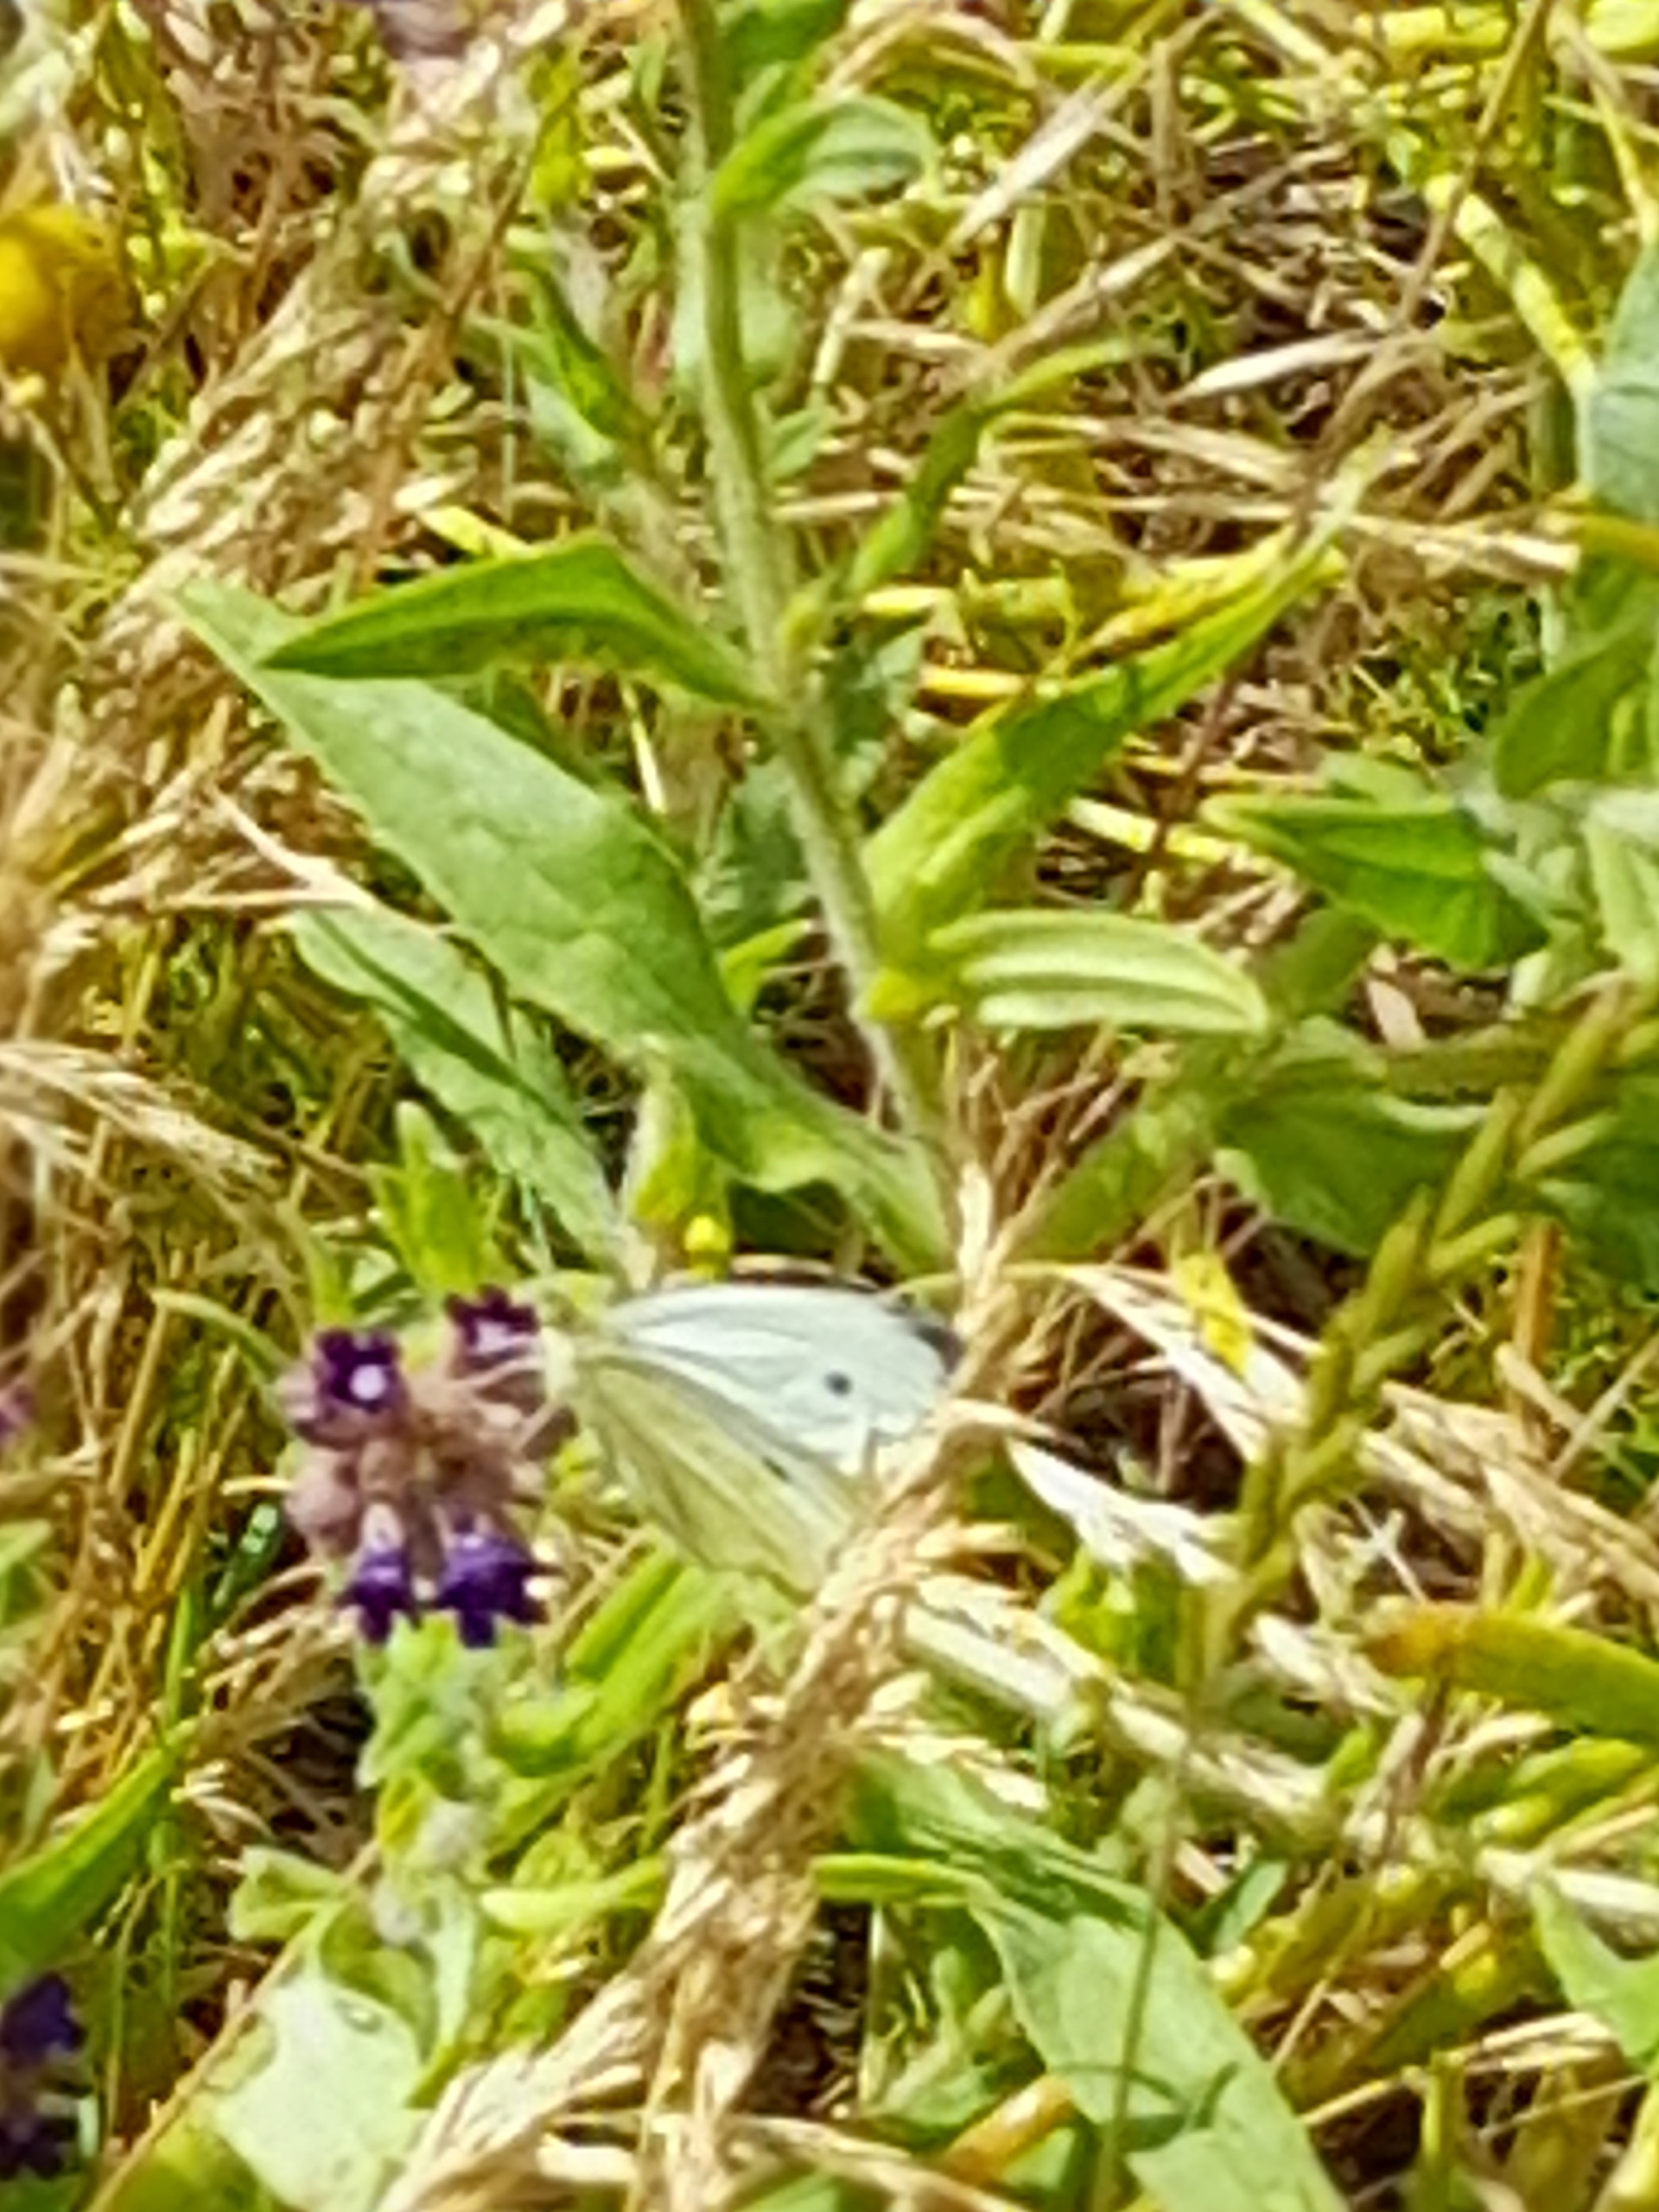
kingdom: Animalia
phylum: Arthropoda
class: Insecta
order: Lepidoptera
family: Pieridae
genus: Pieris
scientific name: Pieris rapae
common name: Lille kålsommerfugl
